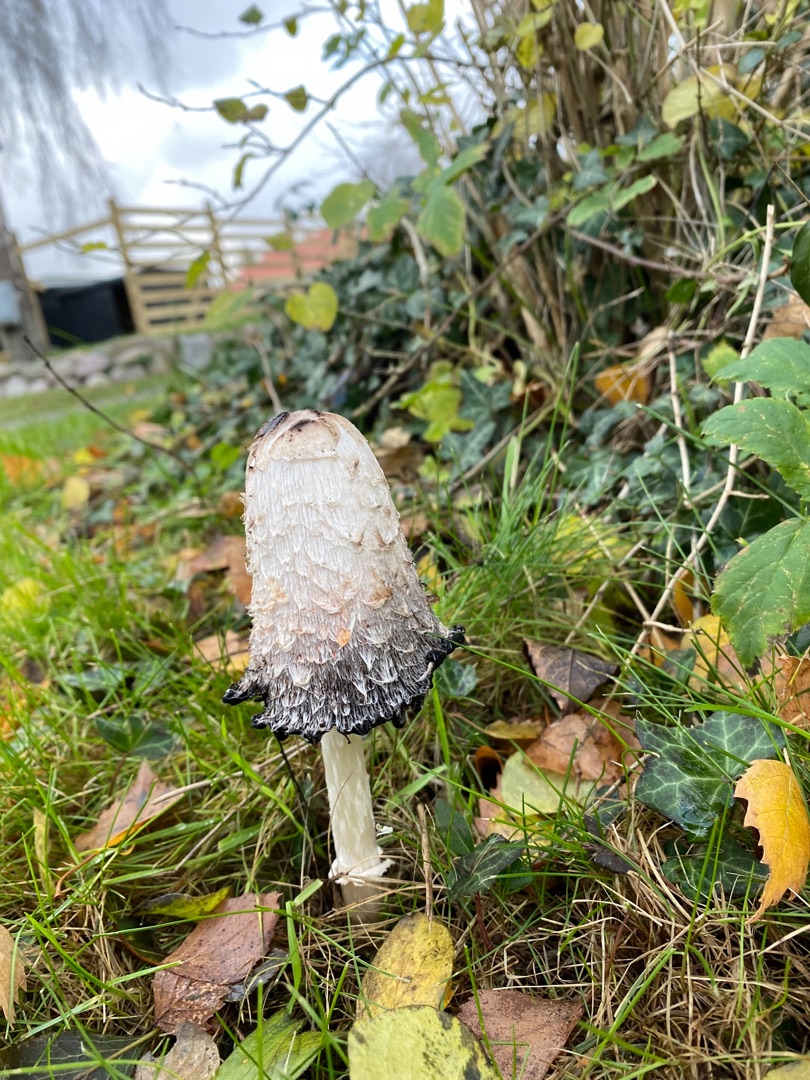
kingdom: Fungi
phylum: Basidiomycota
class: Agaricomycetes
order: Agaricales
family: Agaricaceae
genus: Coprinus
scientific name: Coprinus comatus
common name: Stor parykhat
